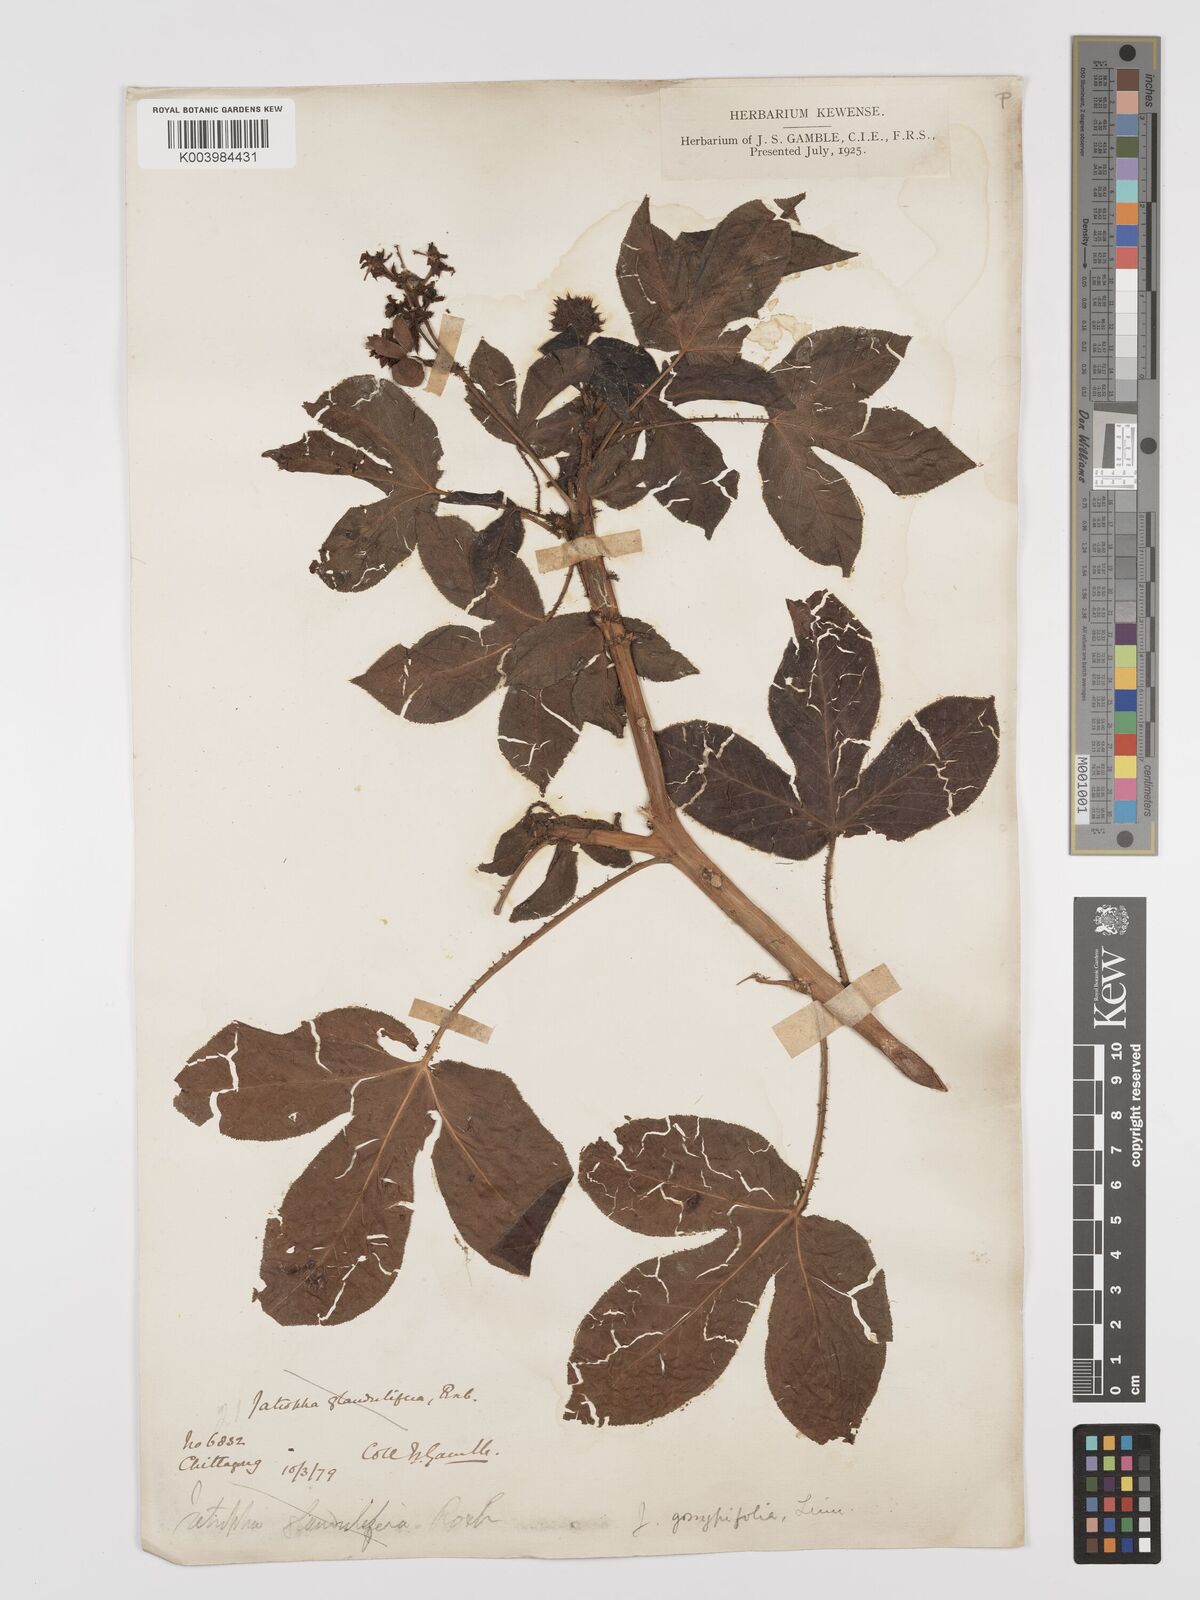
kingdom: Plantae
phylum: Tracheophyta
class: Magnoliopsida
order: Malpighiales
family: Euphorbiaceae
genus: Jatropha
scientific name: Jatropha gossypiifolia
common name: Bellyache bush
